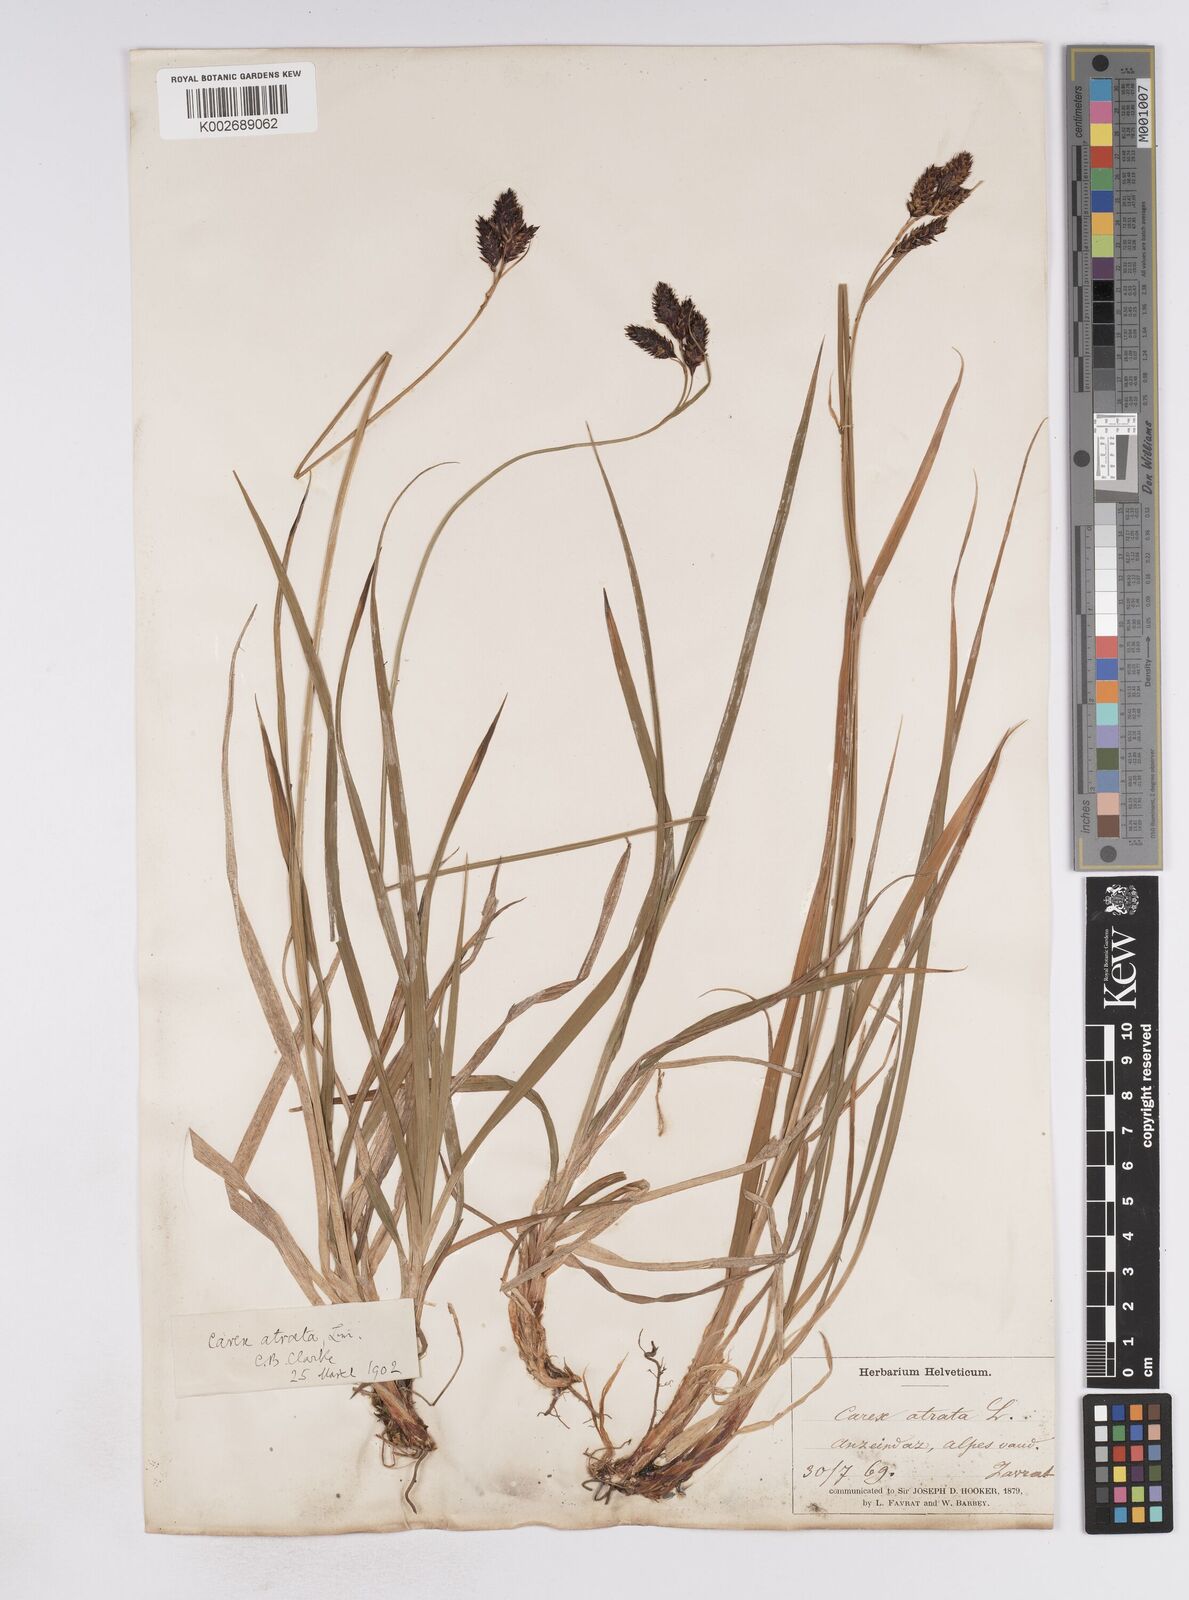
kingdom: Plantae
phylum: Tracheophyta
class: Liliopsida
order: Poales
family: Cyperaceae
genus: Carex
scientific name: Carex atrata
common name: Black alpine sedge
